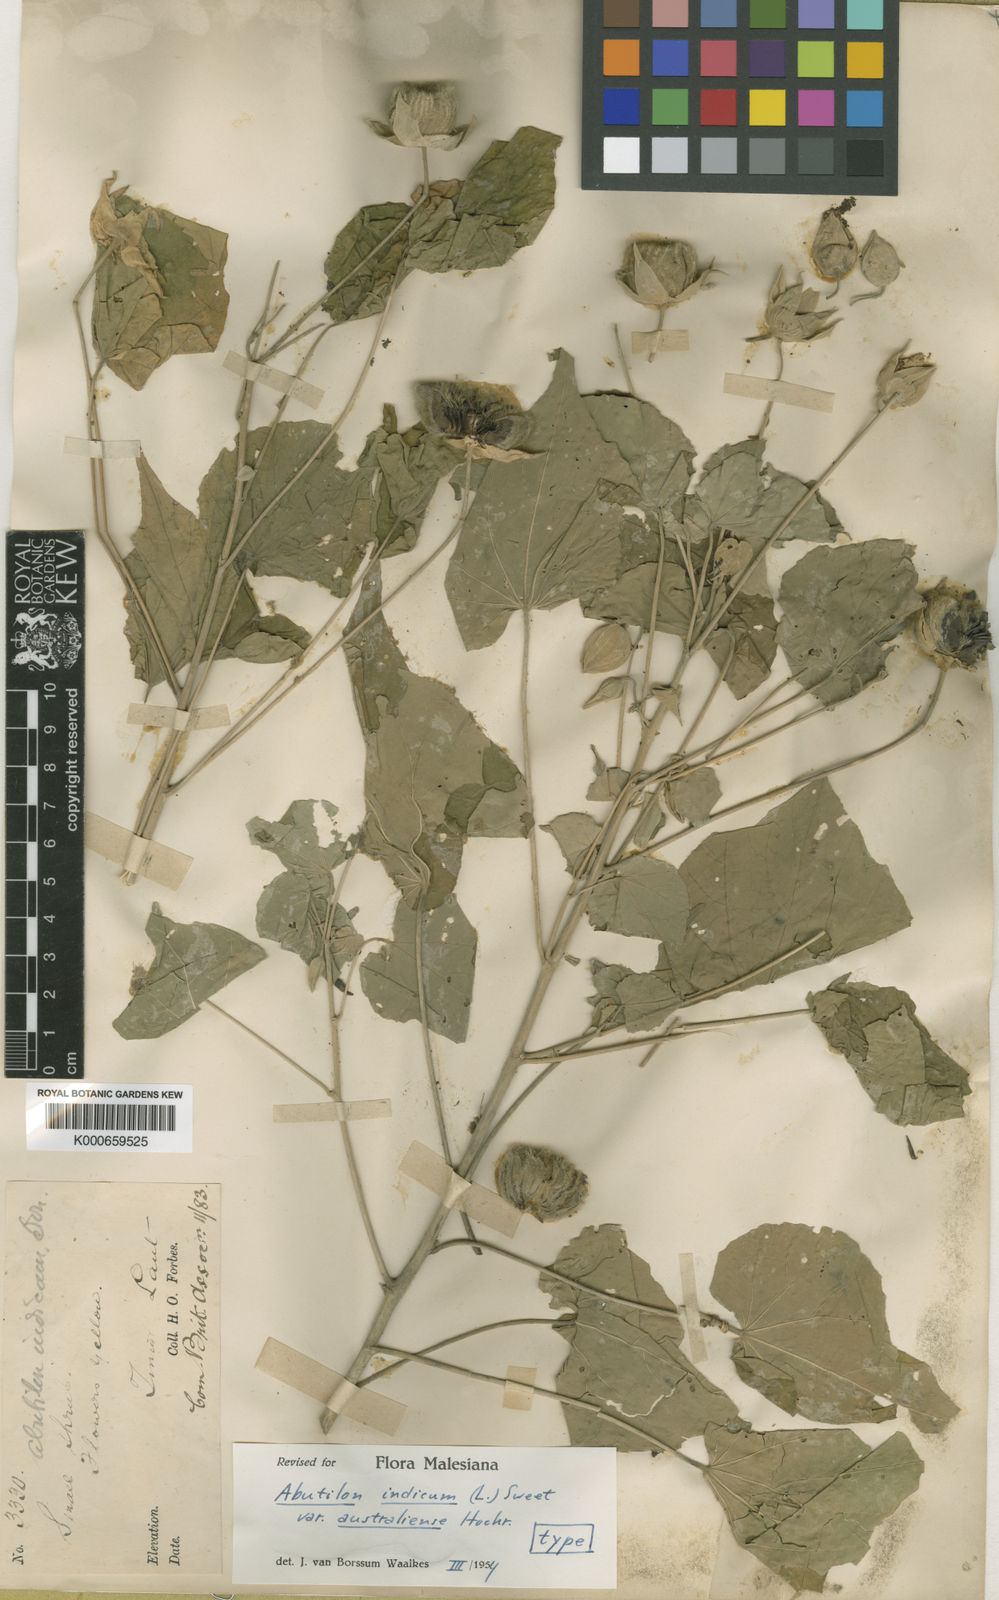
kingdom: Plantae
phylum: Tracheophyta
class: Magnoliopsida
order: Malvales
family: Malvaceae
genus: Abutilon
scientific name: Abutilon australiense
